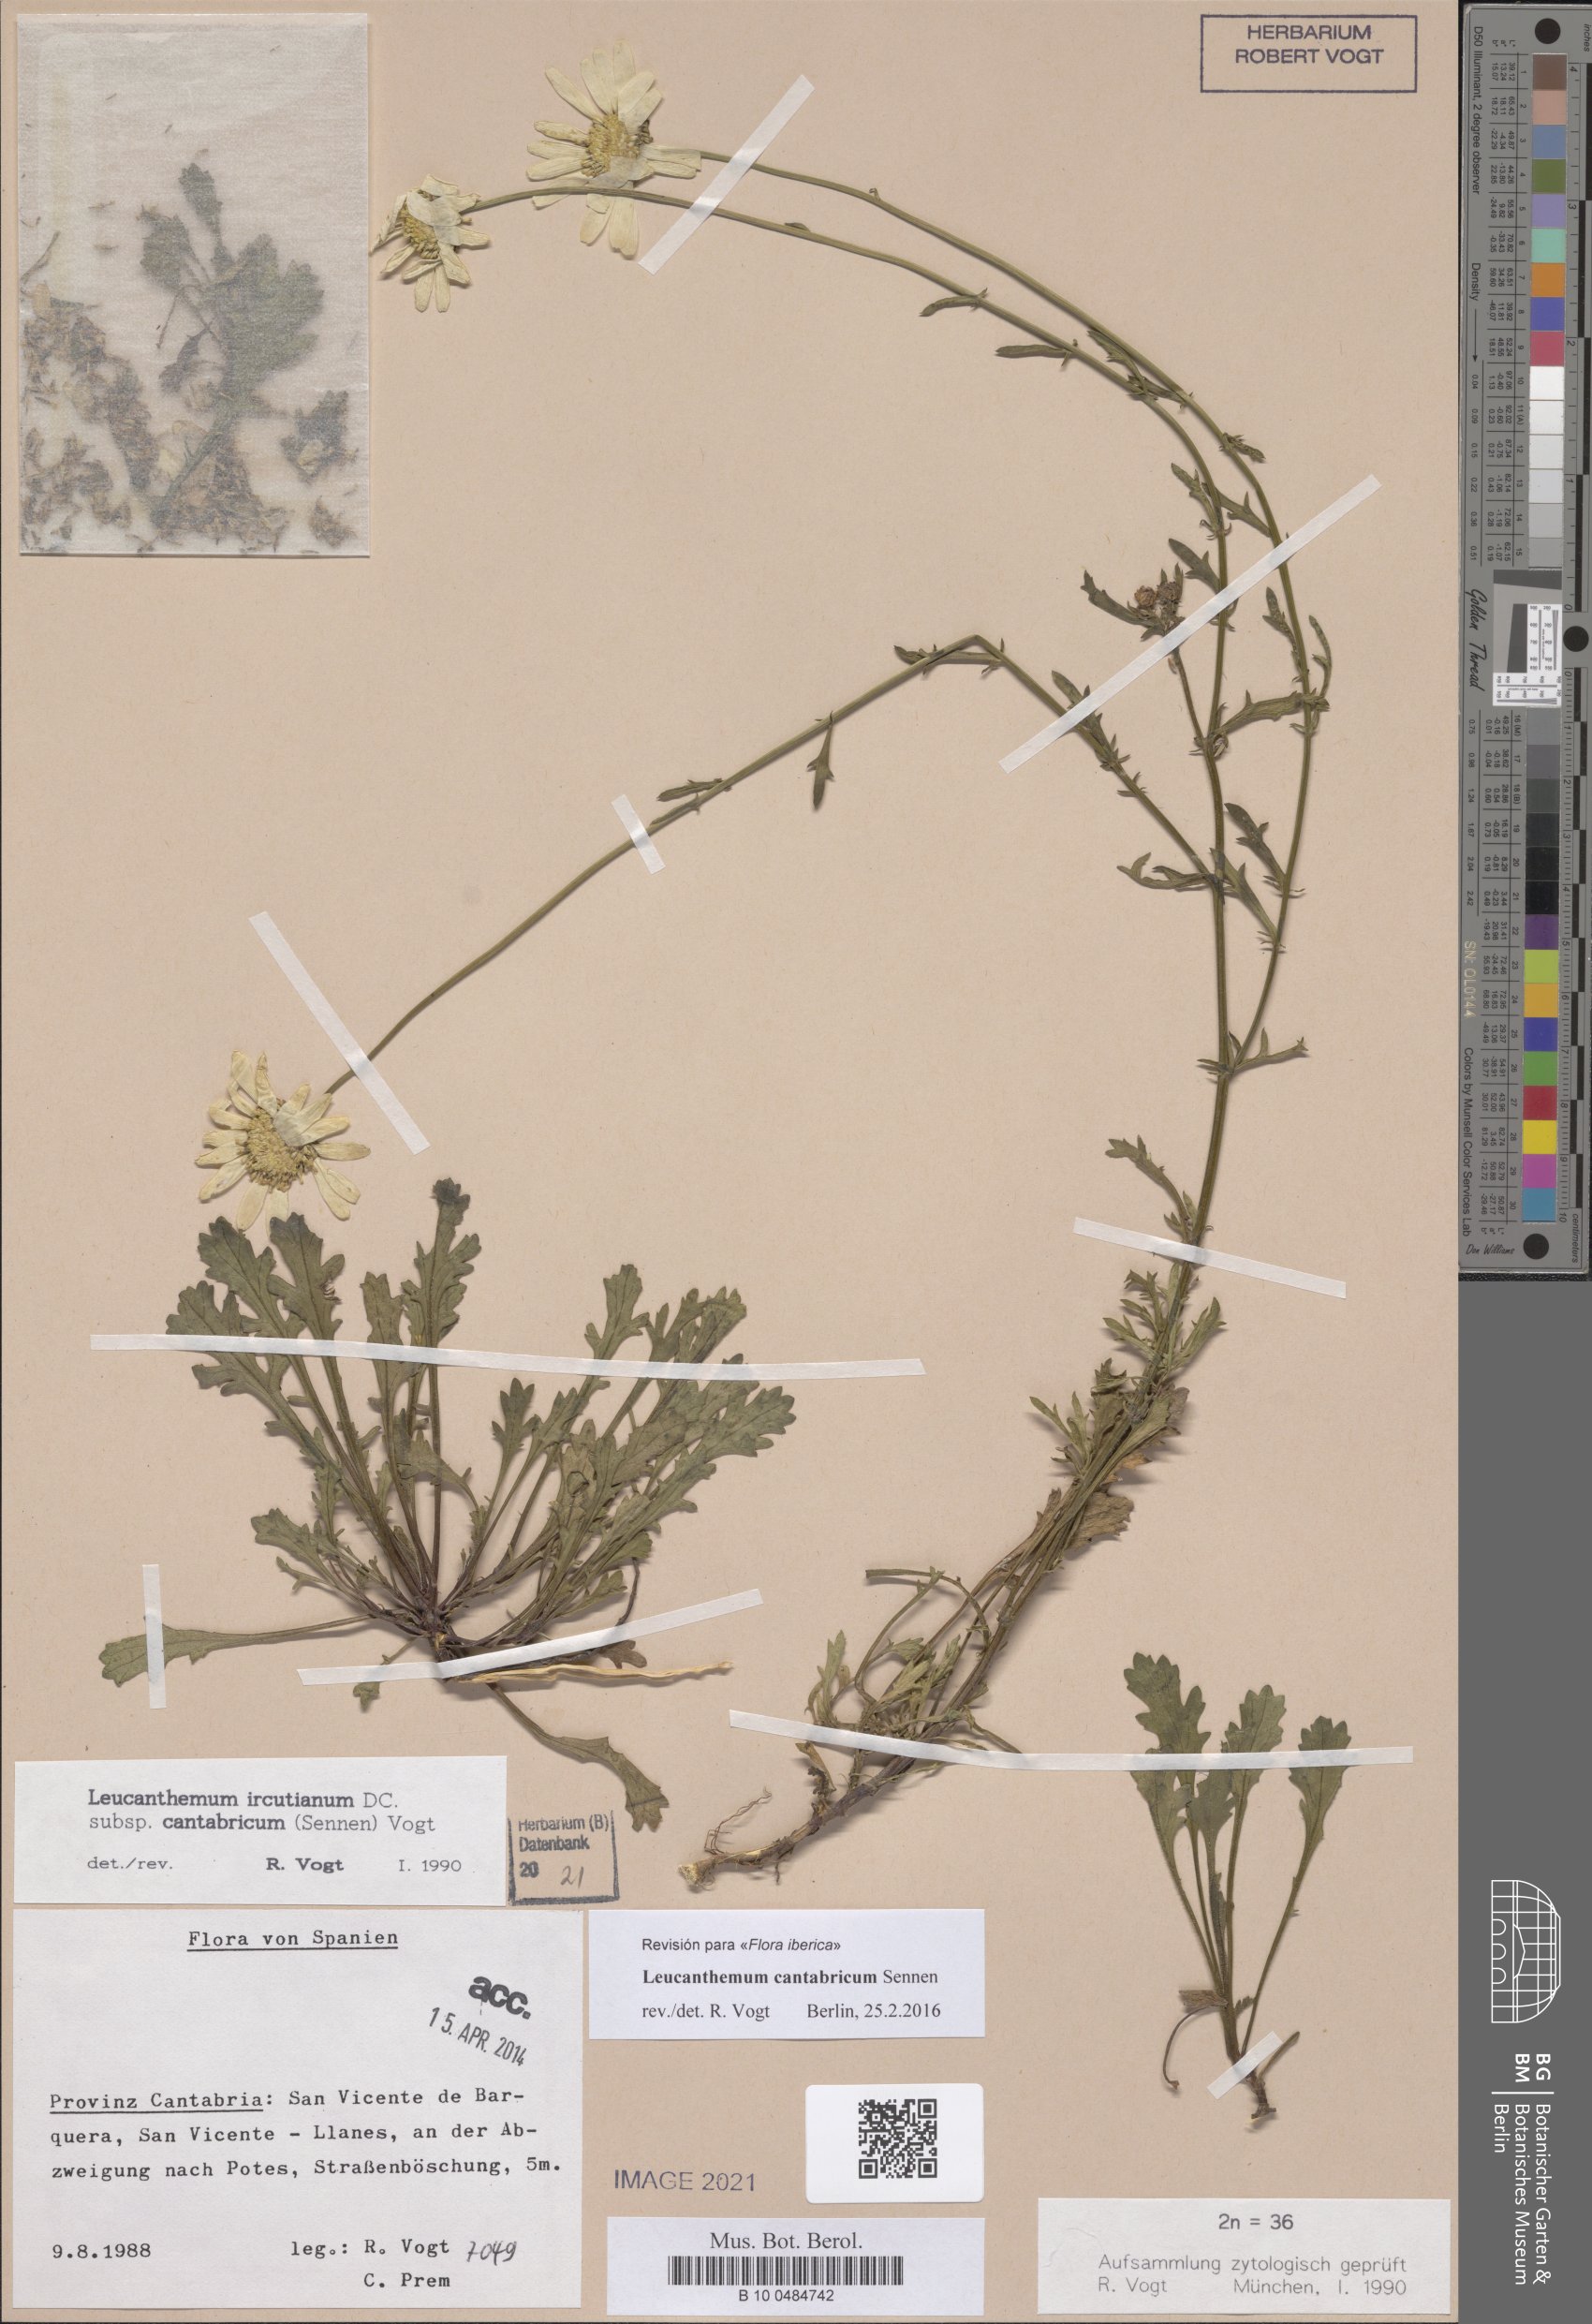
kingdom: Plantae
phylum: Tracheophyta
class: Magnoliopsida
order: Asterales
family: Asteraceae
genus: Leucanthemum
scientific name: Leucanthemum cantabricum
